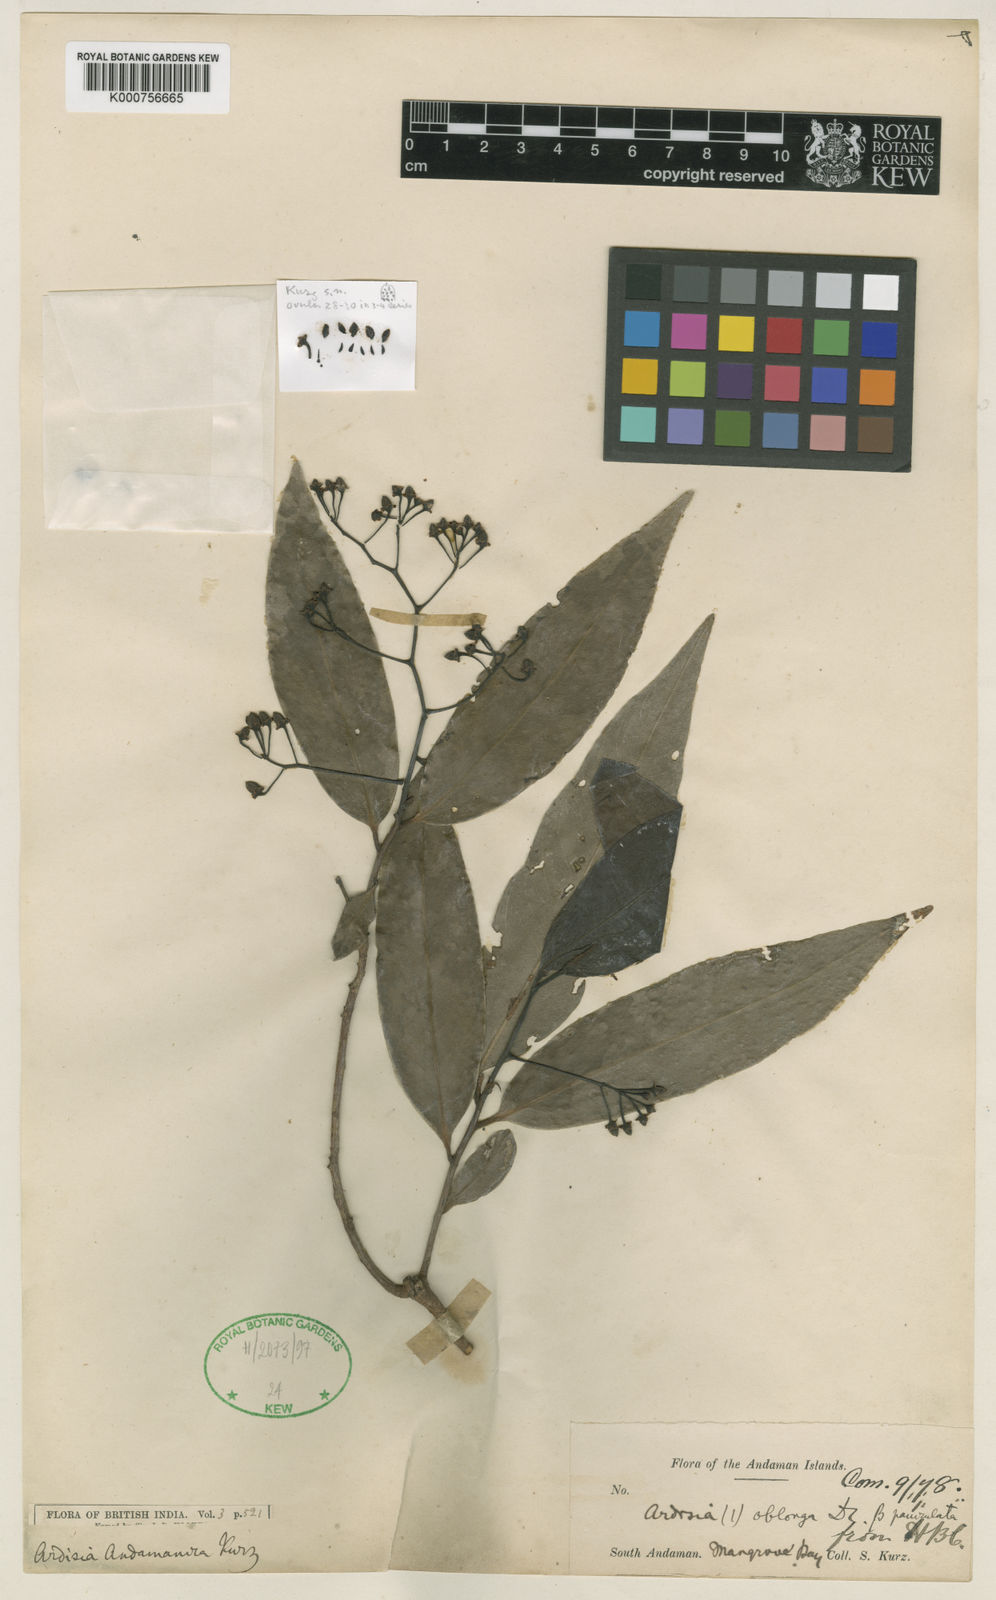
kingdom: Plantae
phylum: Tracheophyta
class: Magnoliopsida
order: Ericales
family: Primulaceae
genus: Ardisia
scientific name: Ardisia andamanica
